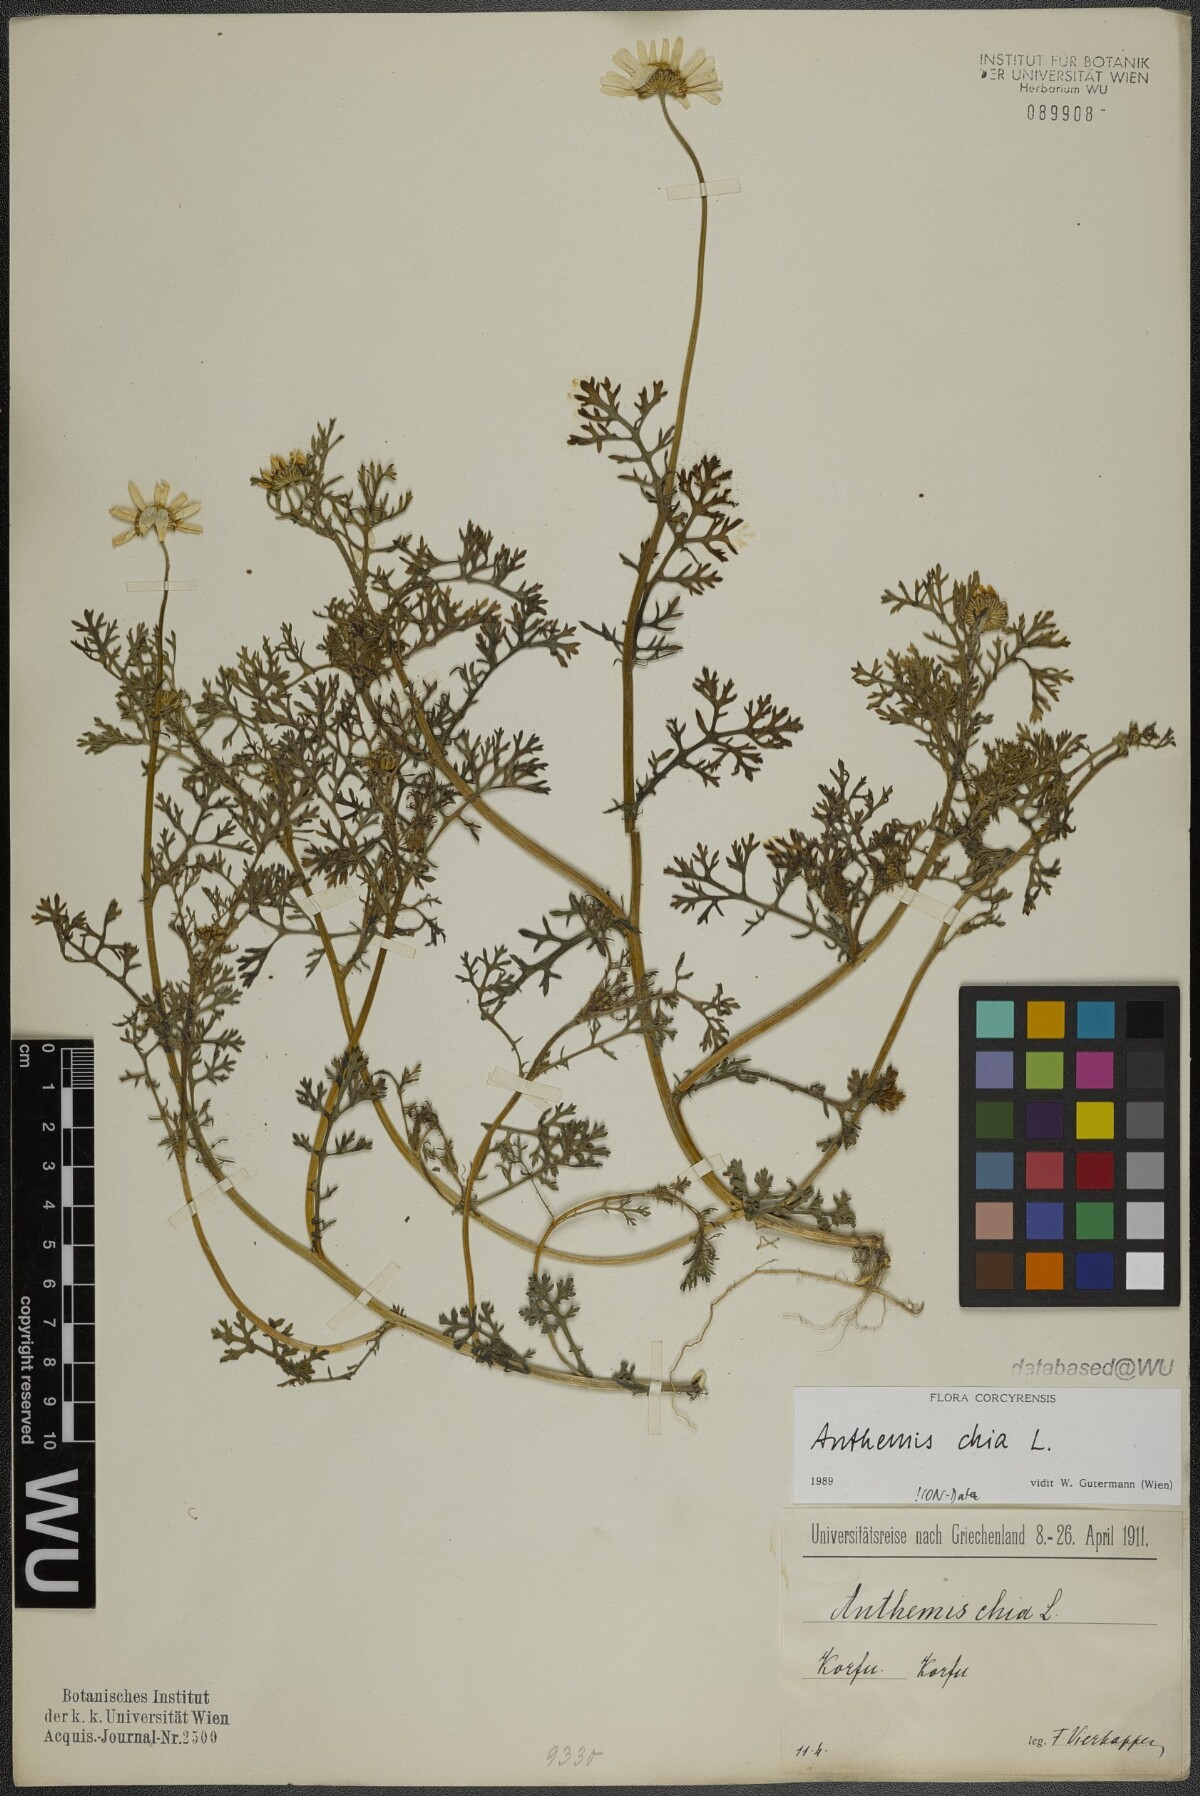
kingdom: Plantae
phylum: Tracheophyta
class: Magnoliopsida
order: Asterales
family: Asteraceae
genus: Anthemis
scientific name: Anthemis chia
